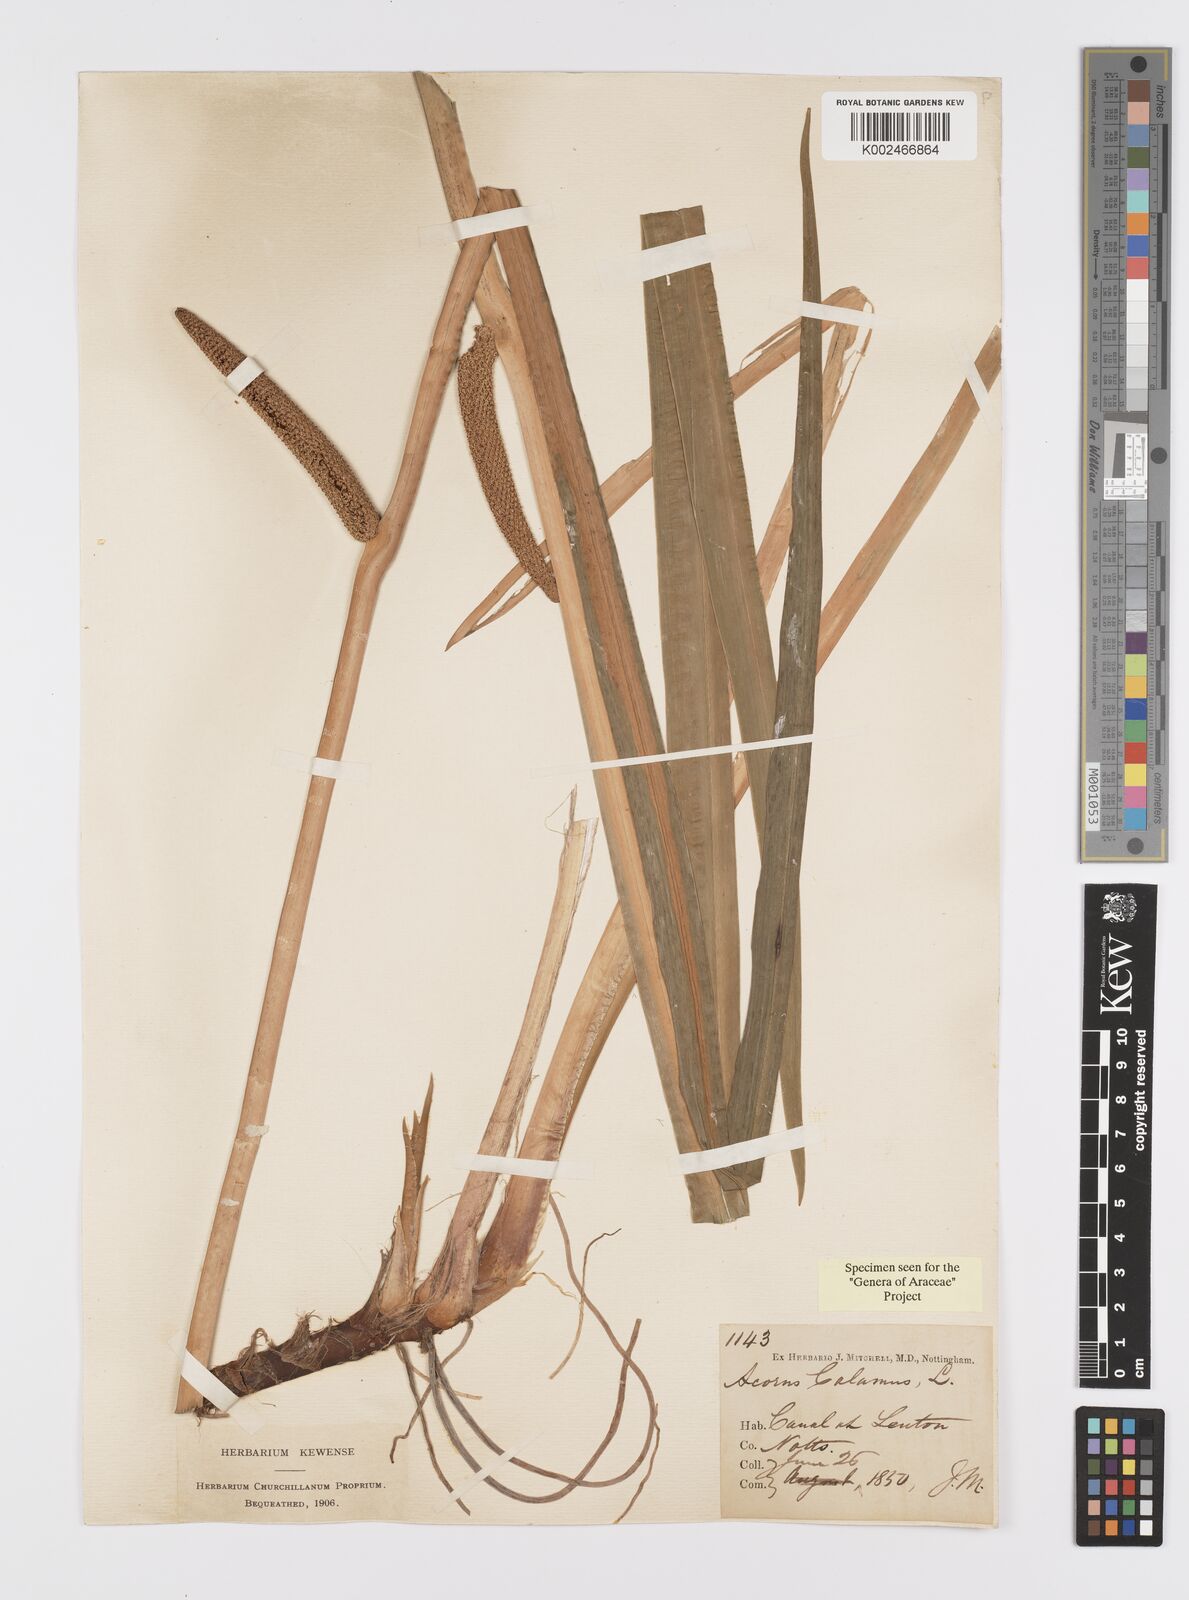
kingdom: Plantae
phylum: Tracheophyta
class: Liliopsida
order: Acorales
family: Acoraceae
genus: Acorus
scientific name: Acorus calamus
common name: Sweet-flag
